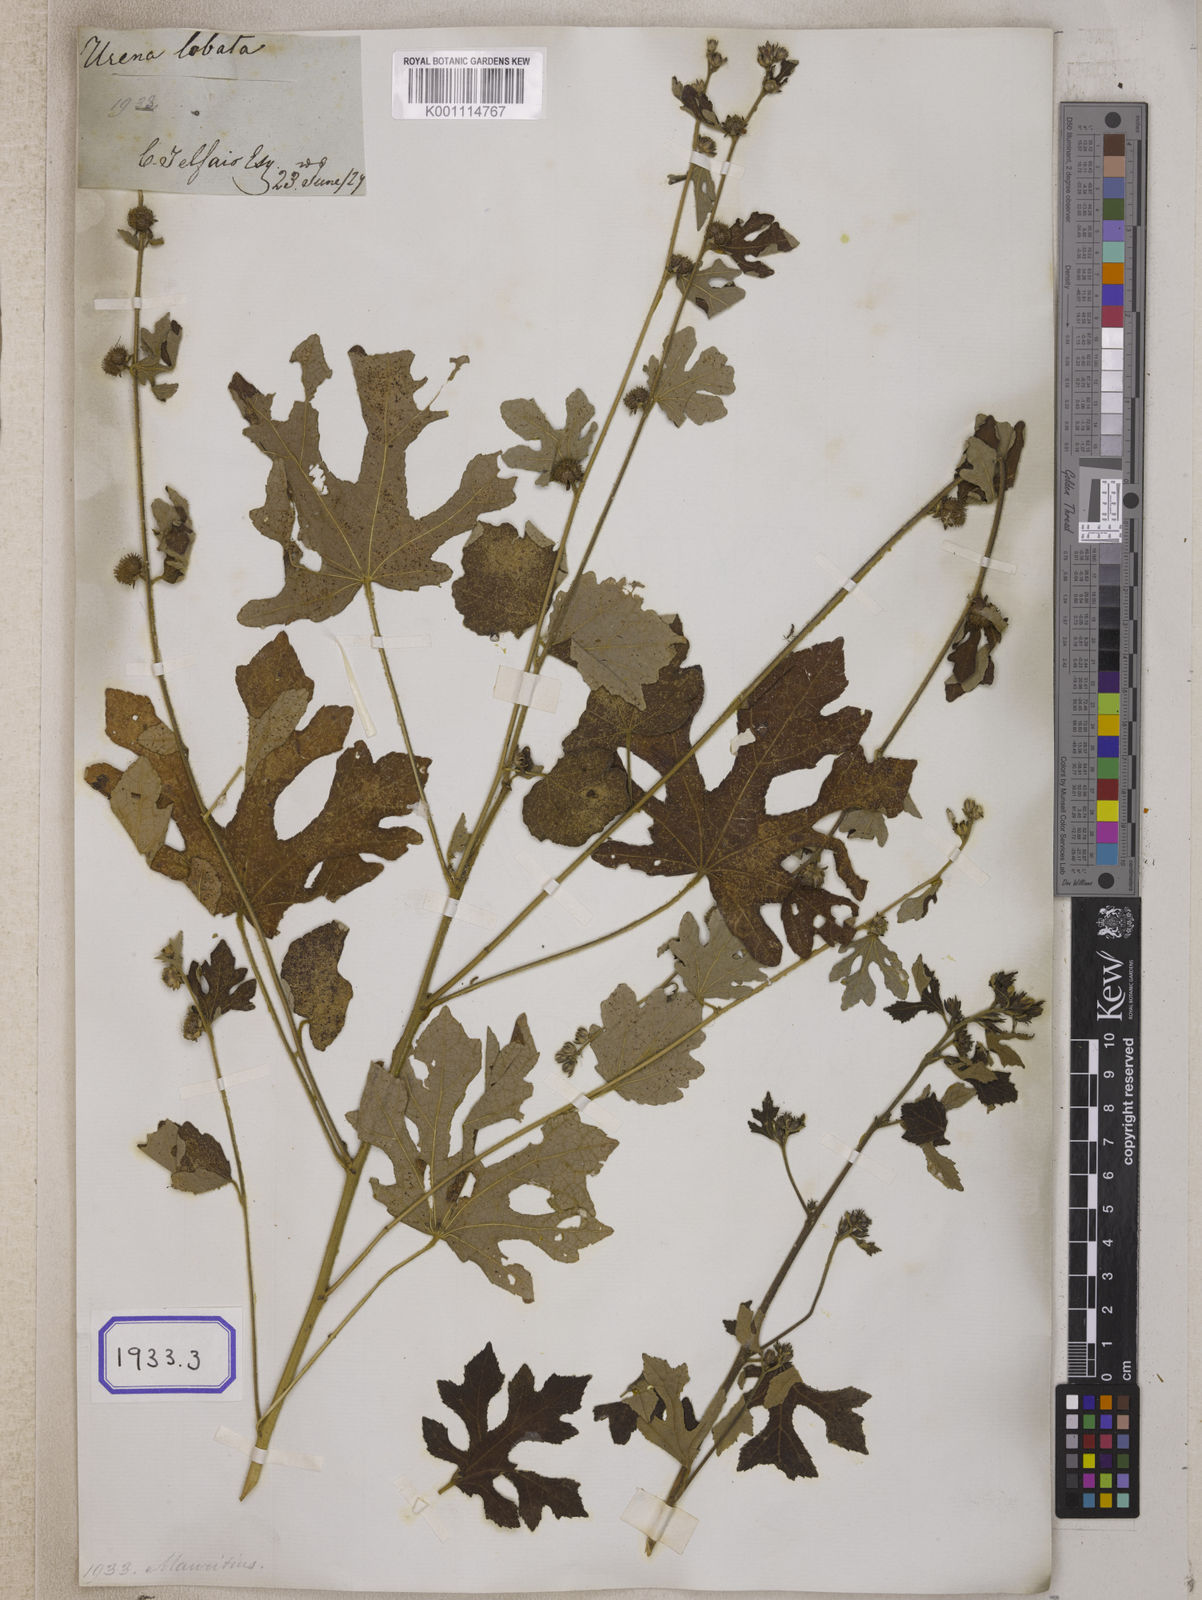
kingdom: Plantae
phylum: Tracheophyta
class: Magnoliopsida
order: Malvales
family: Malvaceae
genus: Urena
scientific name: Urena procumbens
